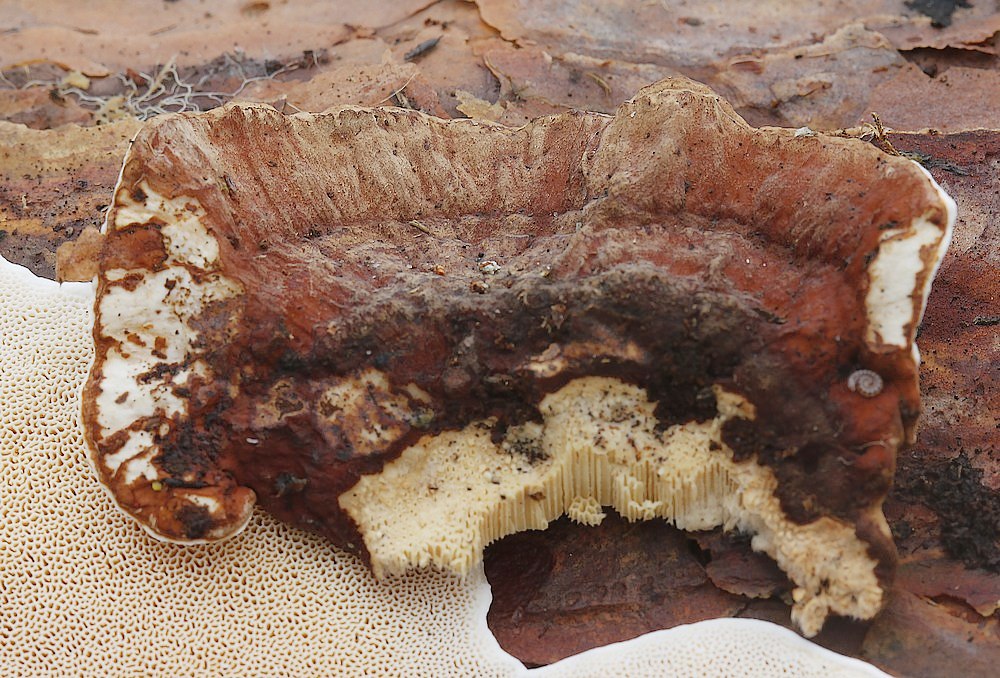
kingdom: Fungi
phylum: Basidiomycota
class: Agaricomycetes
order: Russulales
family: Bondarzewiaceae
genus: Heterobasidion
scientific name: Heterobasidion
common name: rodfordærver
